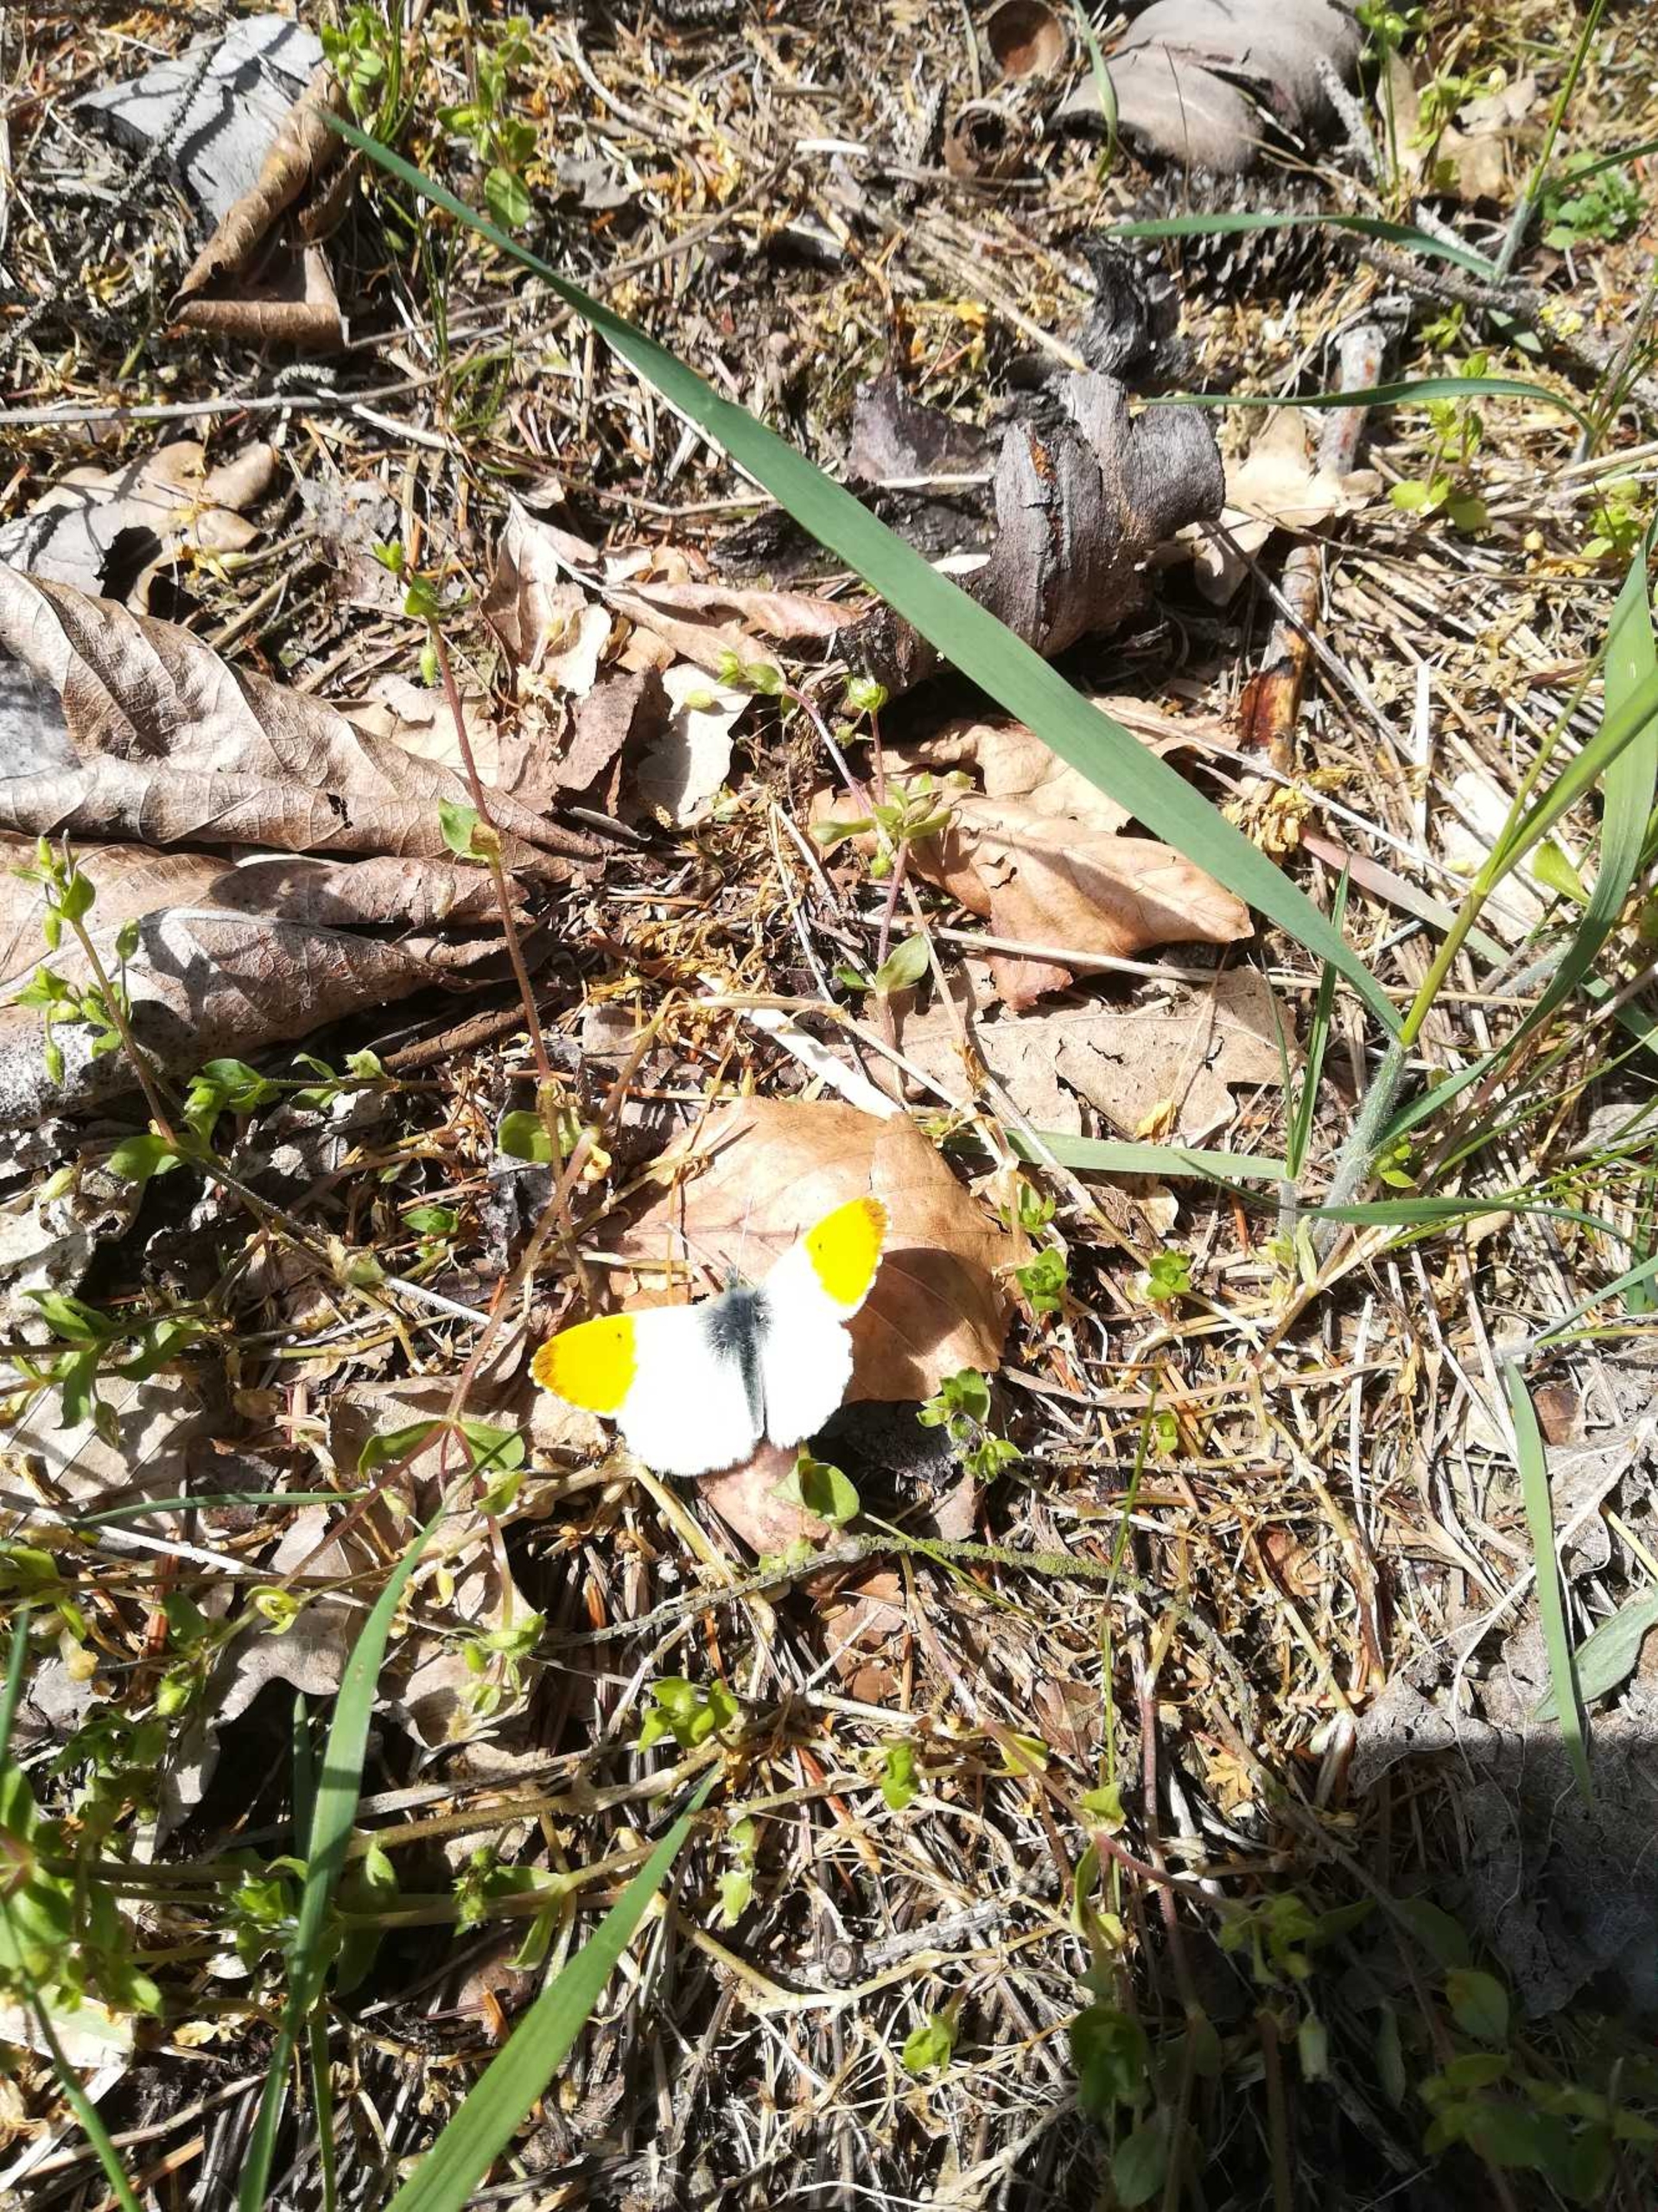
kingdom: Animalia
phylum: Arthropoda
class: Insecta
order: Lepidoptera
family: Pieridae
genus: Anthocharis
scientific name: Anthocharis cardamines
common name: Aurora
